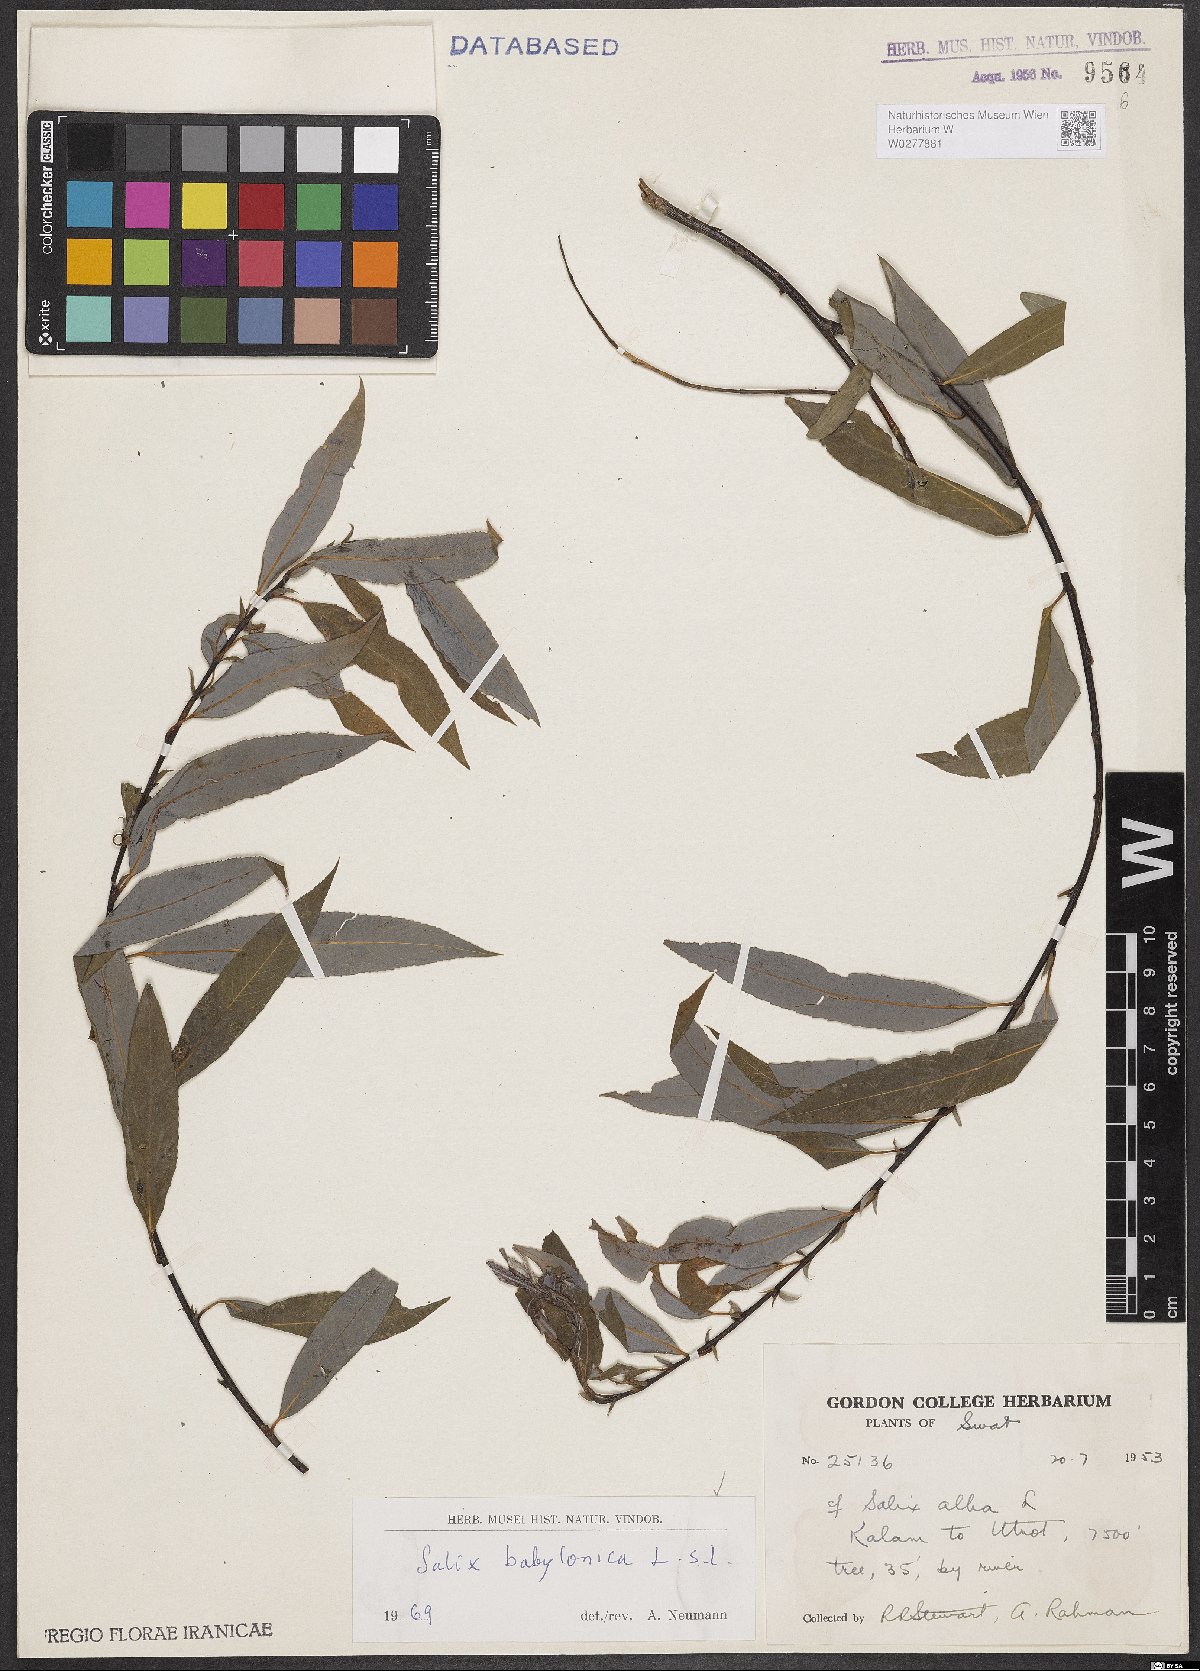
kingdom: Plantae
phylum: Tracheophyta
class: Magnoliopsida
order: Malpighiales
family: Salicaceae
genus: Salix
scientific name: Salix babylonica
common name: Weeping willow
